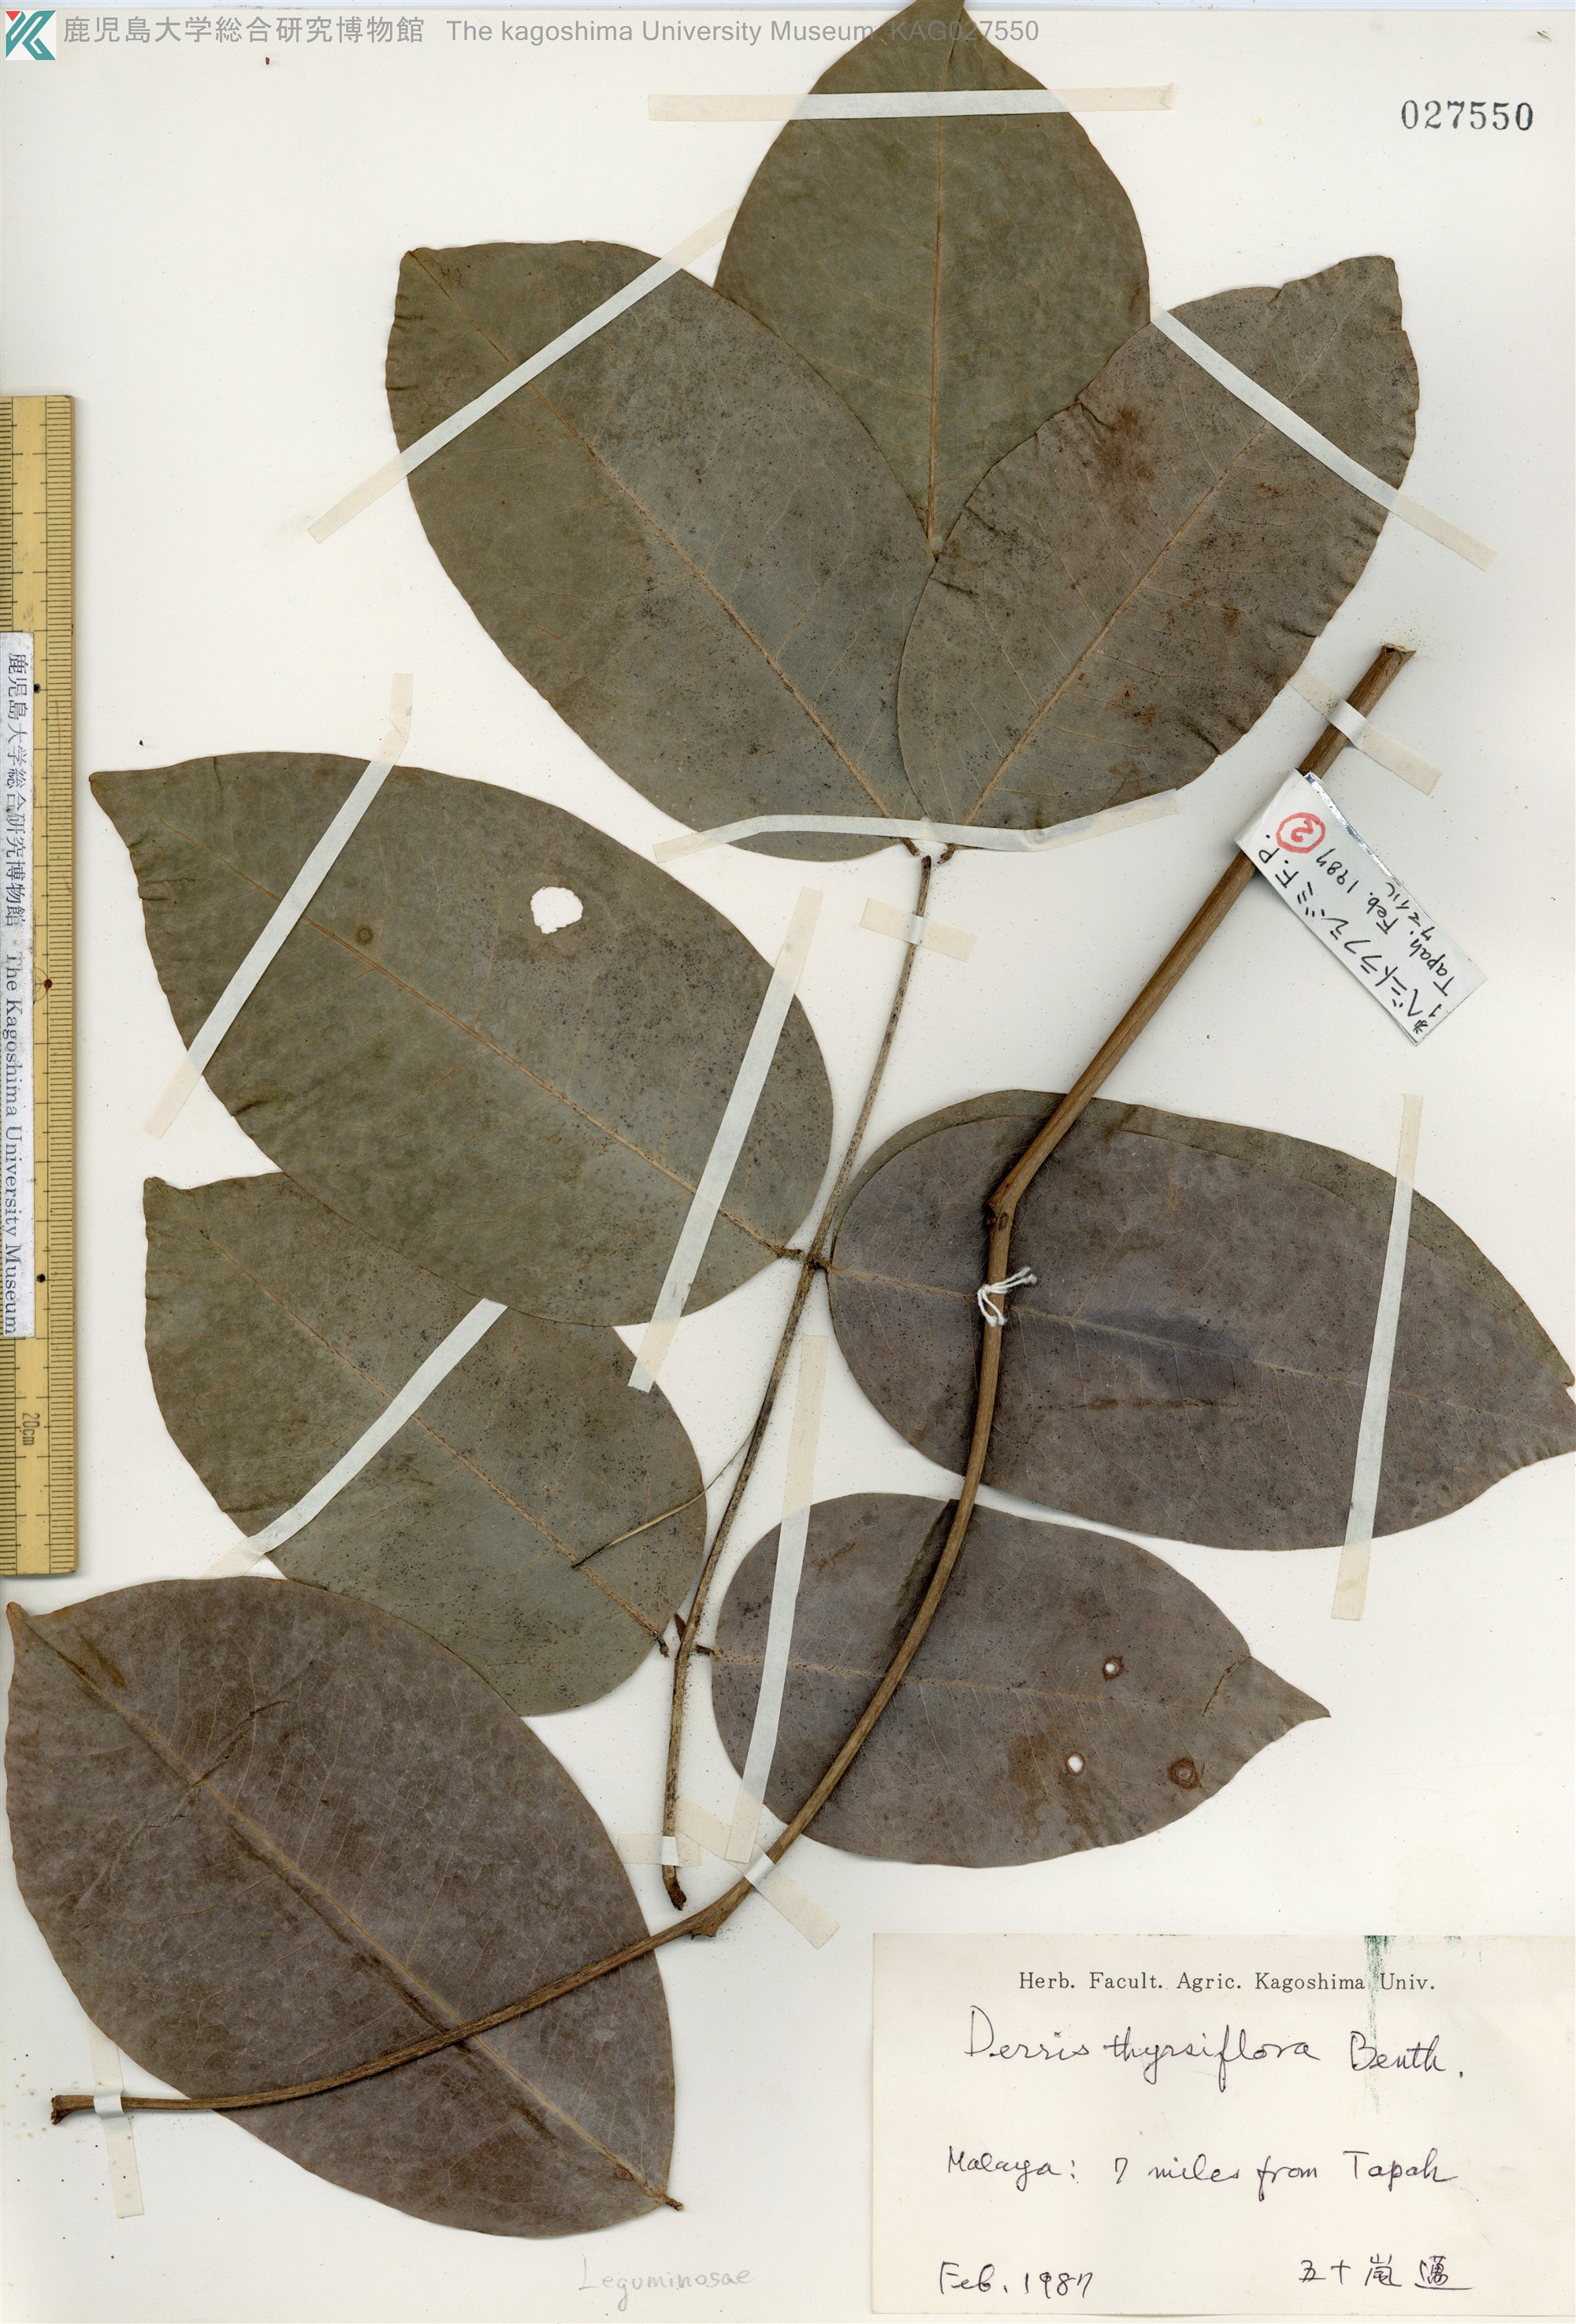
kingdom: Plantae
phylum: Tracheophyta
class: Magnoliopsida
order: Fabales
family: Fabaceae
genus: Aganope
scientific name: Aganope thyrsiflora
